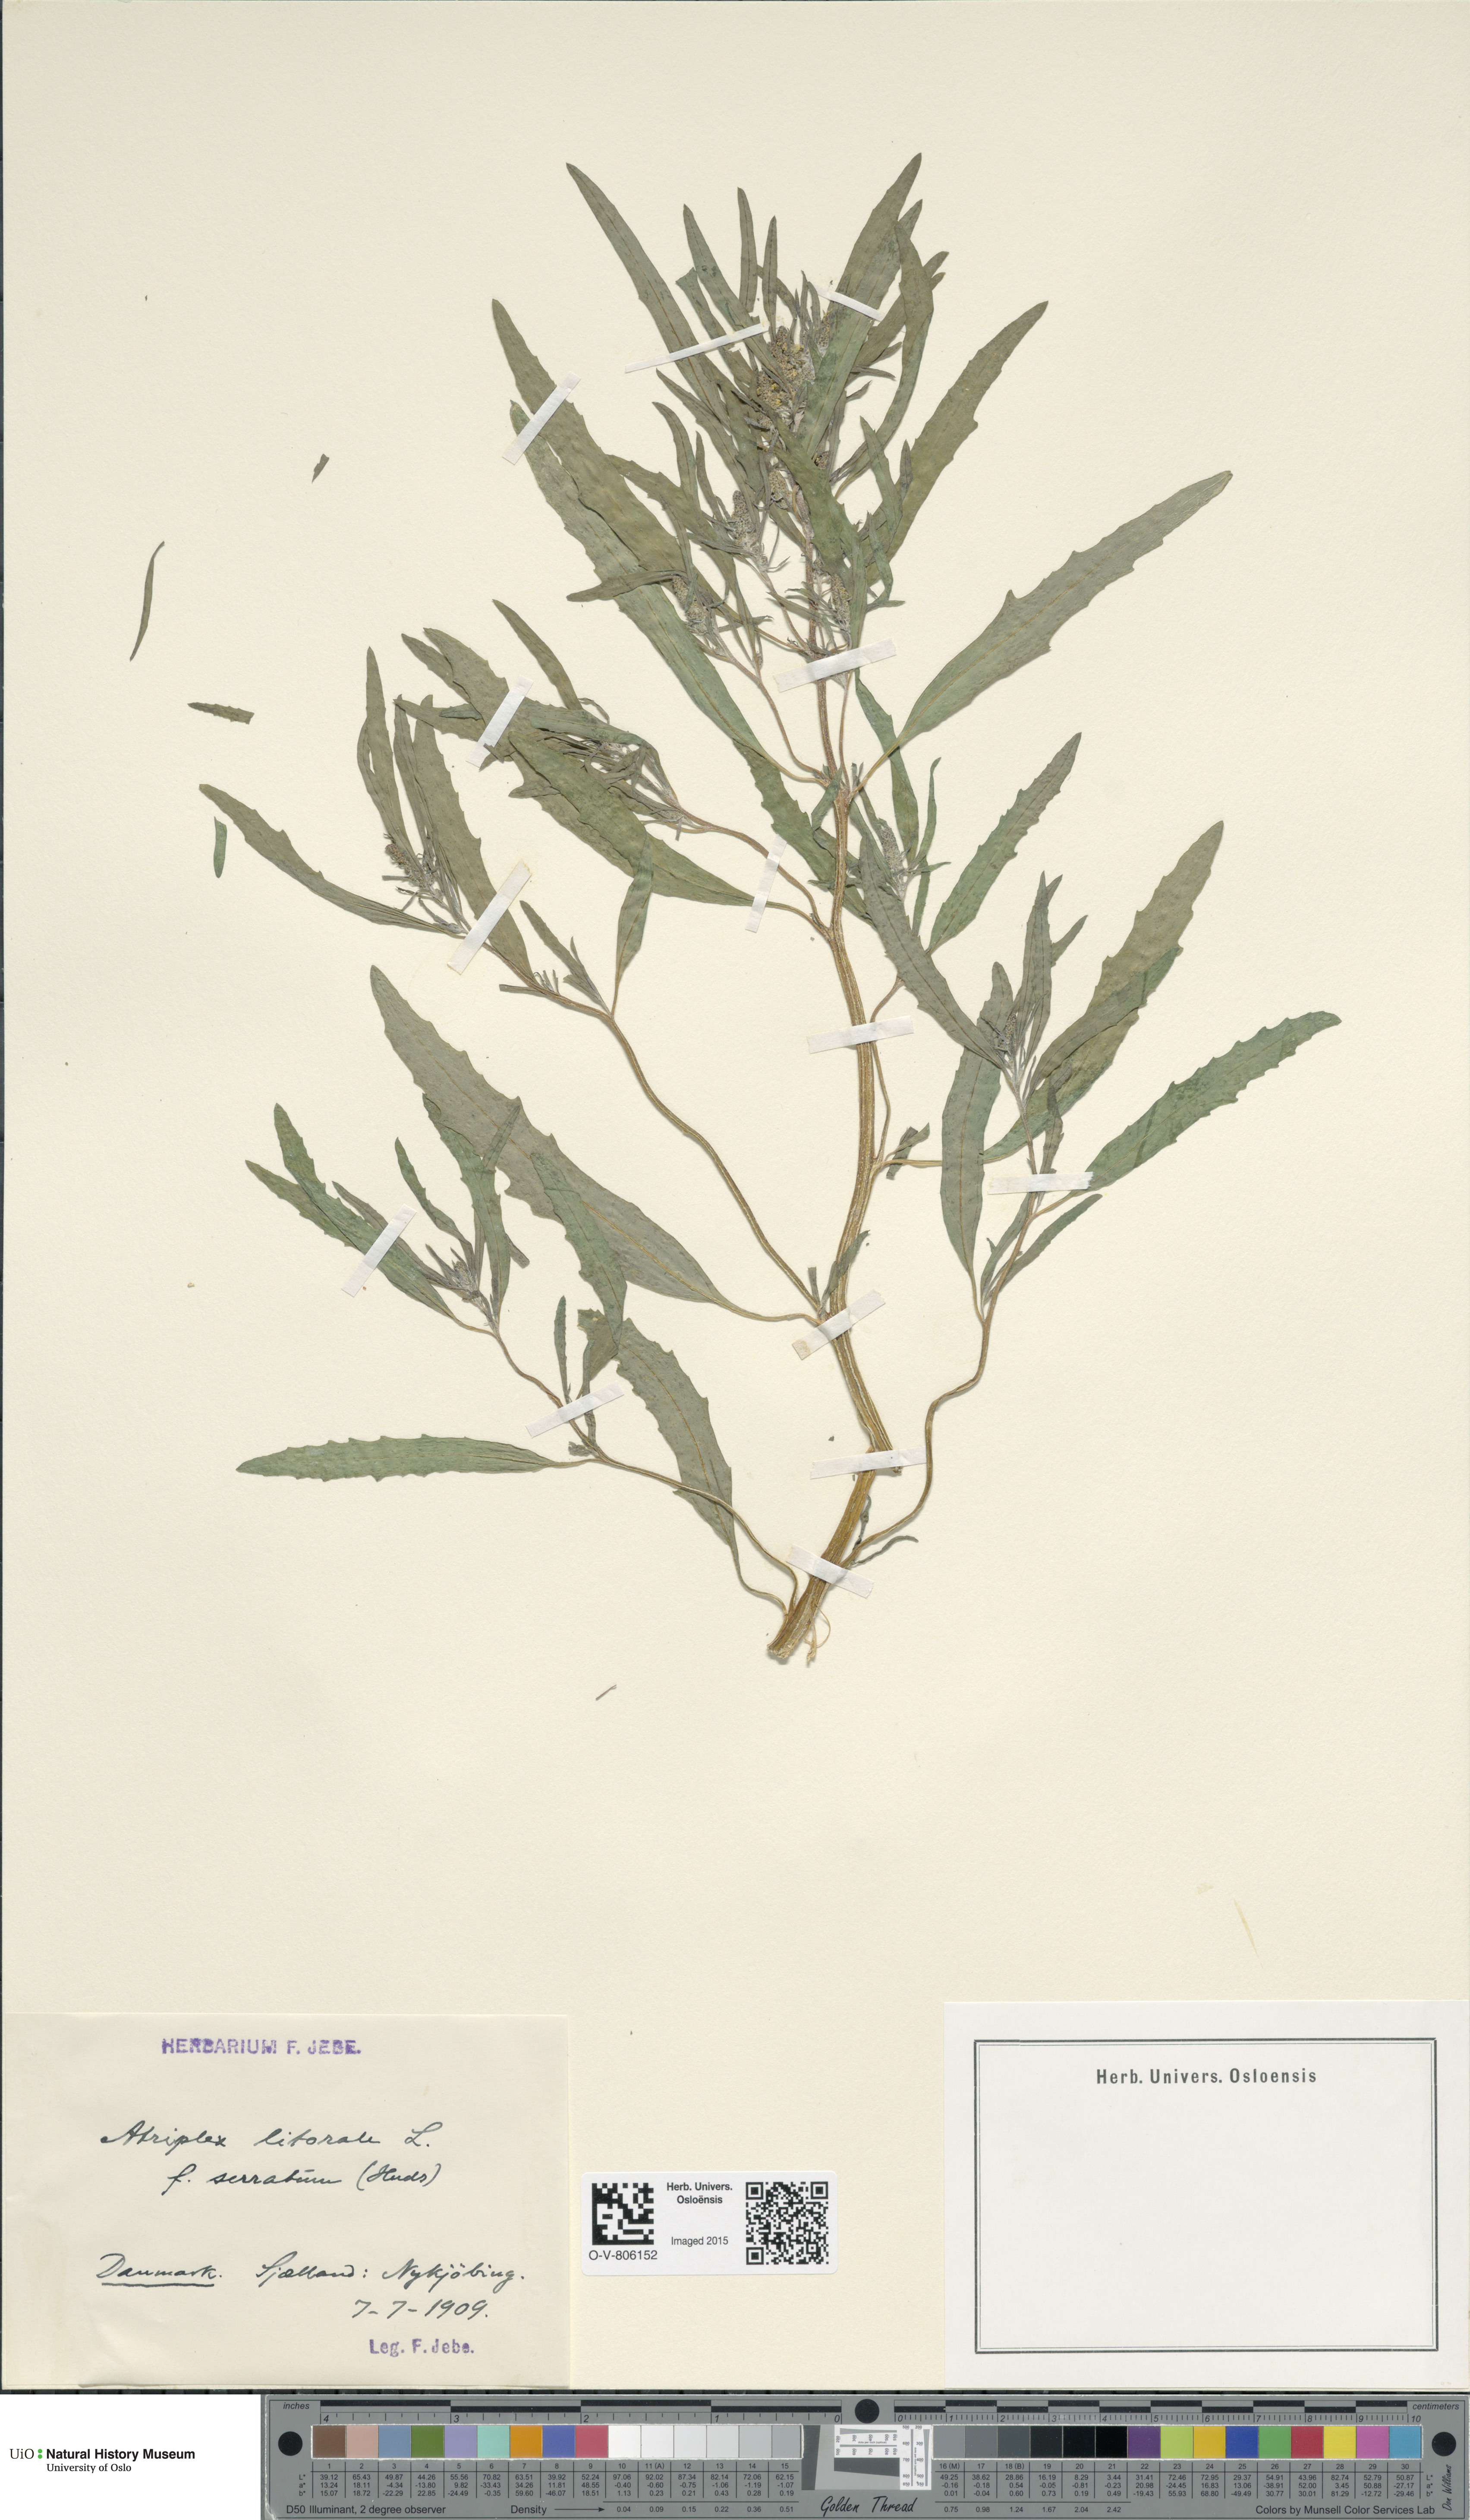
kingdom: Plantae
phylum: Tracheophyta
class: Magnoliopsida
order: Caryophyllales
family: Amaranthaceae
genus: Atriplex
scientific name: Atriplex littoralis
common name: Grass-leaved orache
